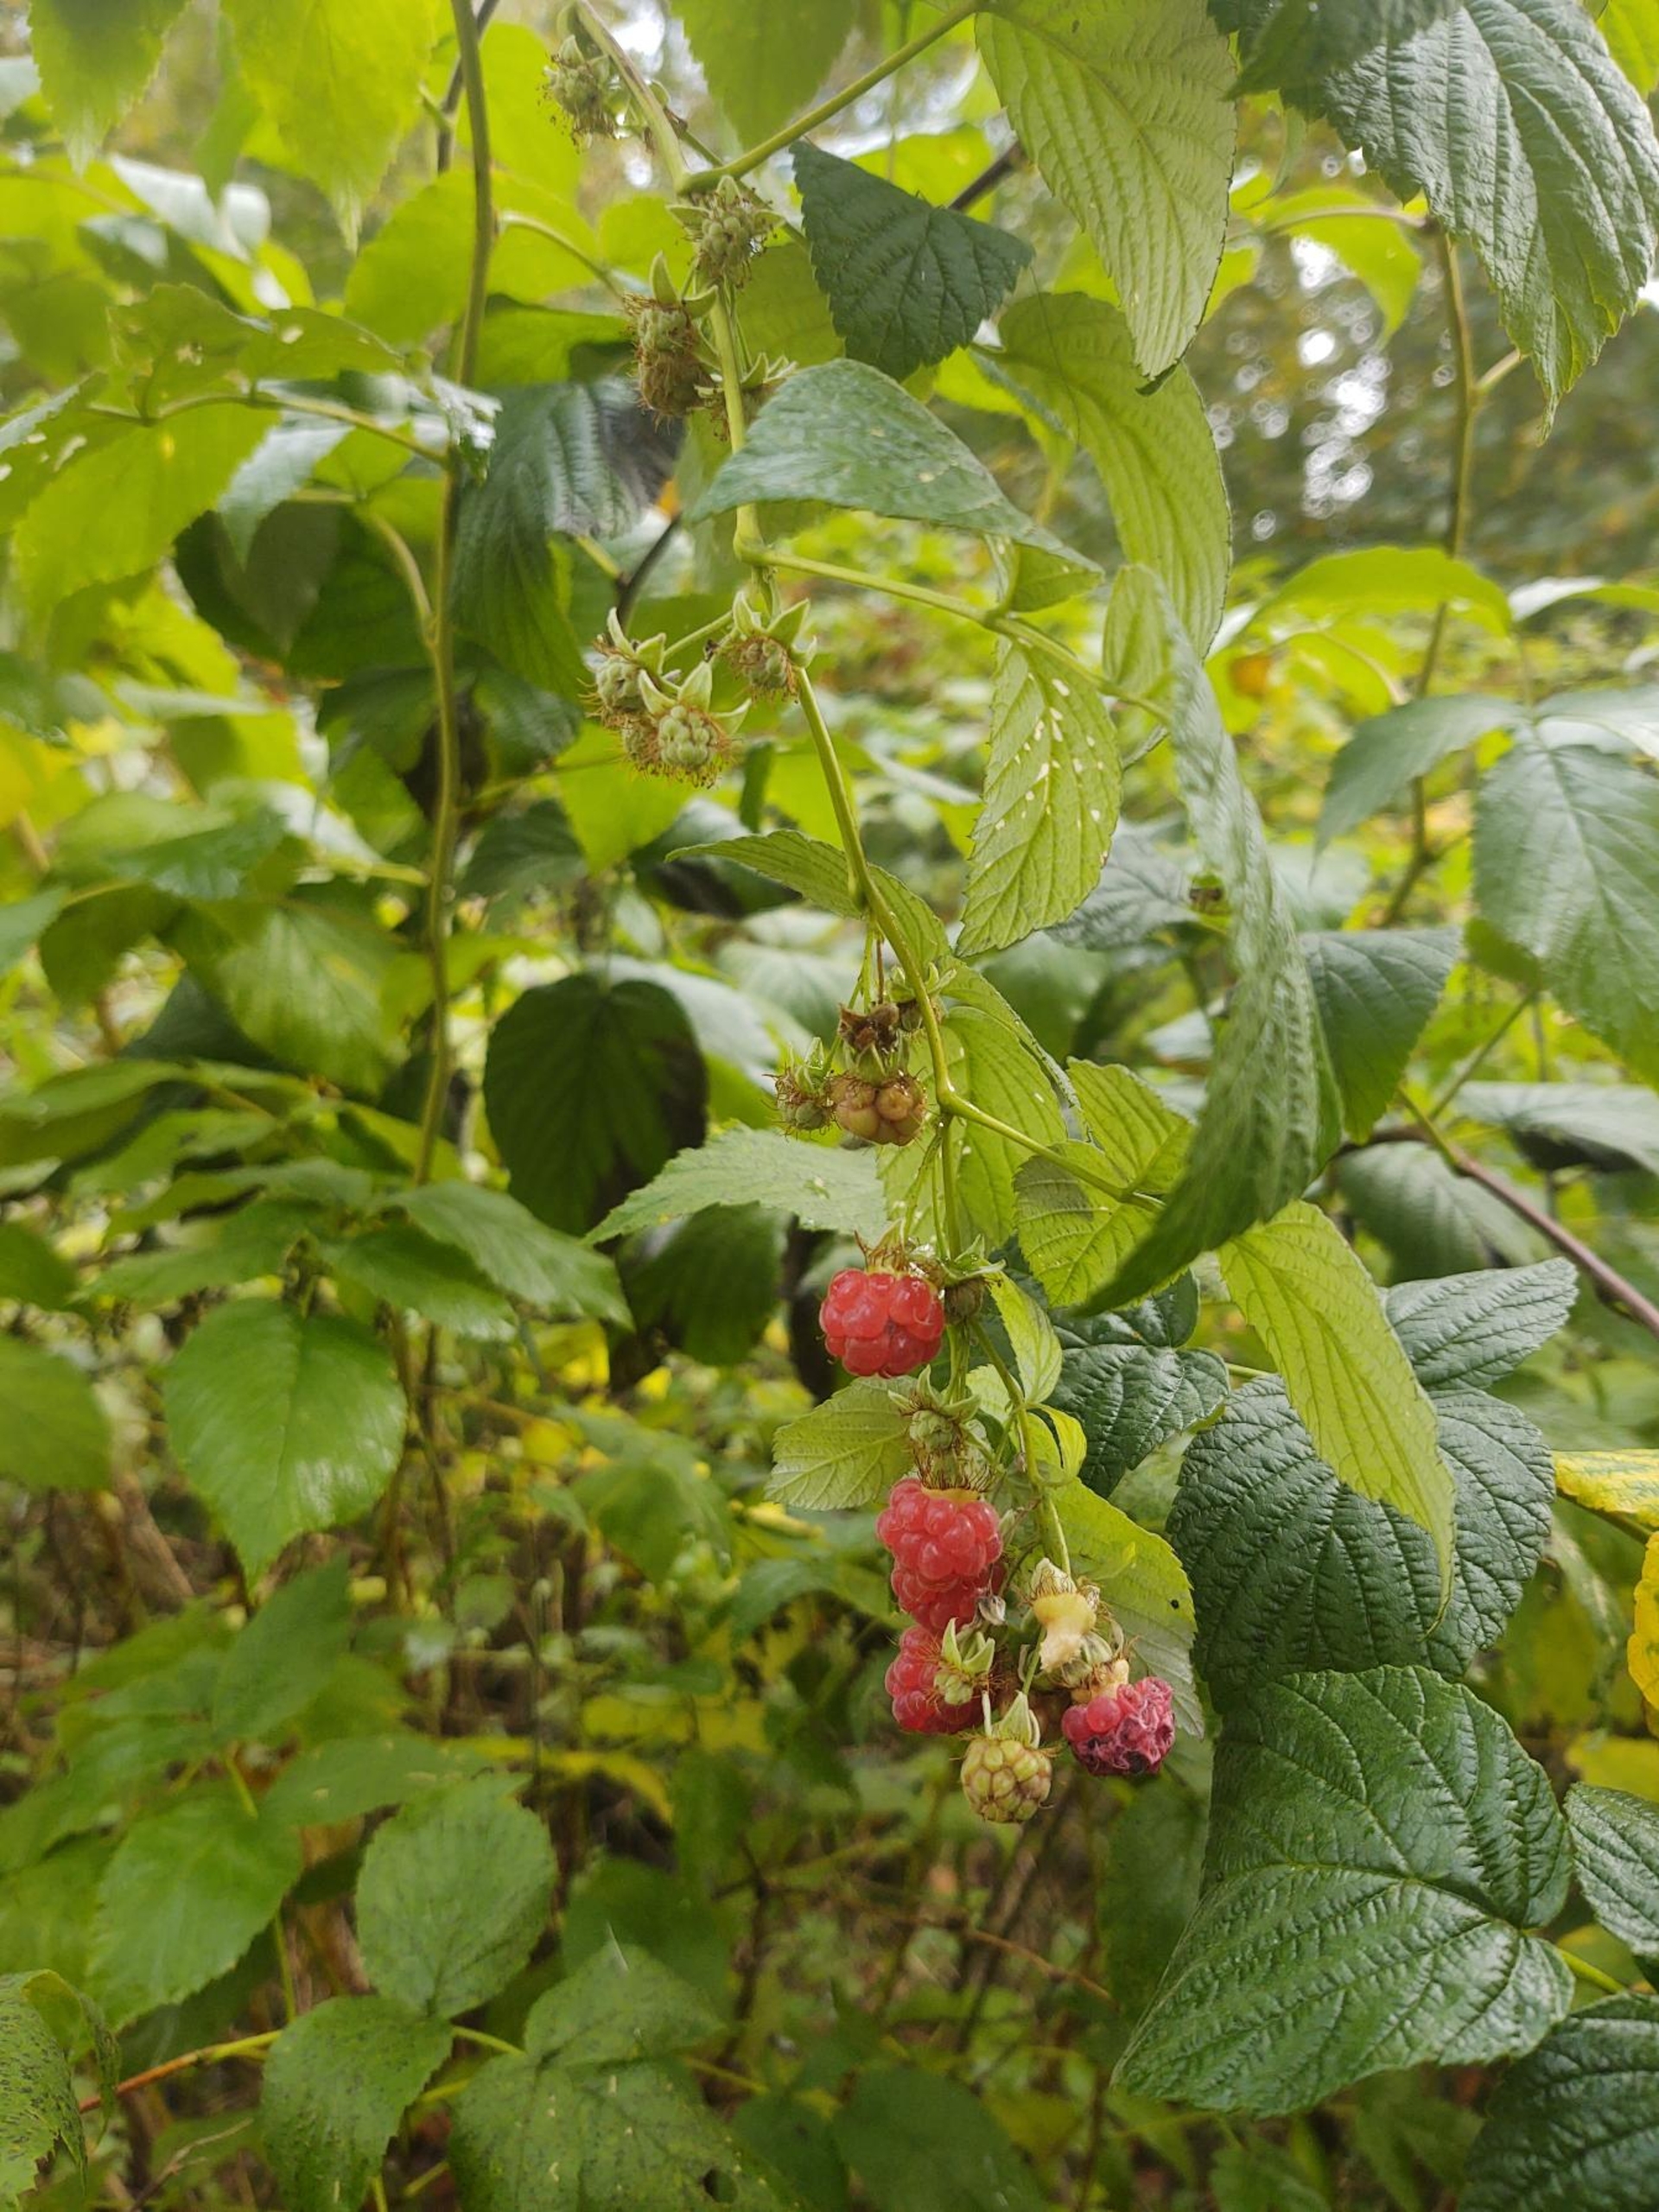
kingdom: Plantae
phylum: Tracheophyta
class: Magnoliopsida
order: Rosales
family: Rosaceae
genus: Rubus
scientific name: Rubus idaeus
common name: Hindbær
